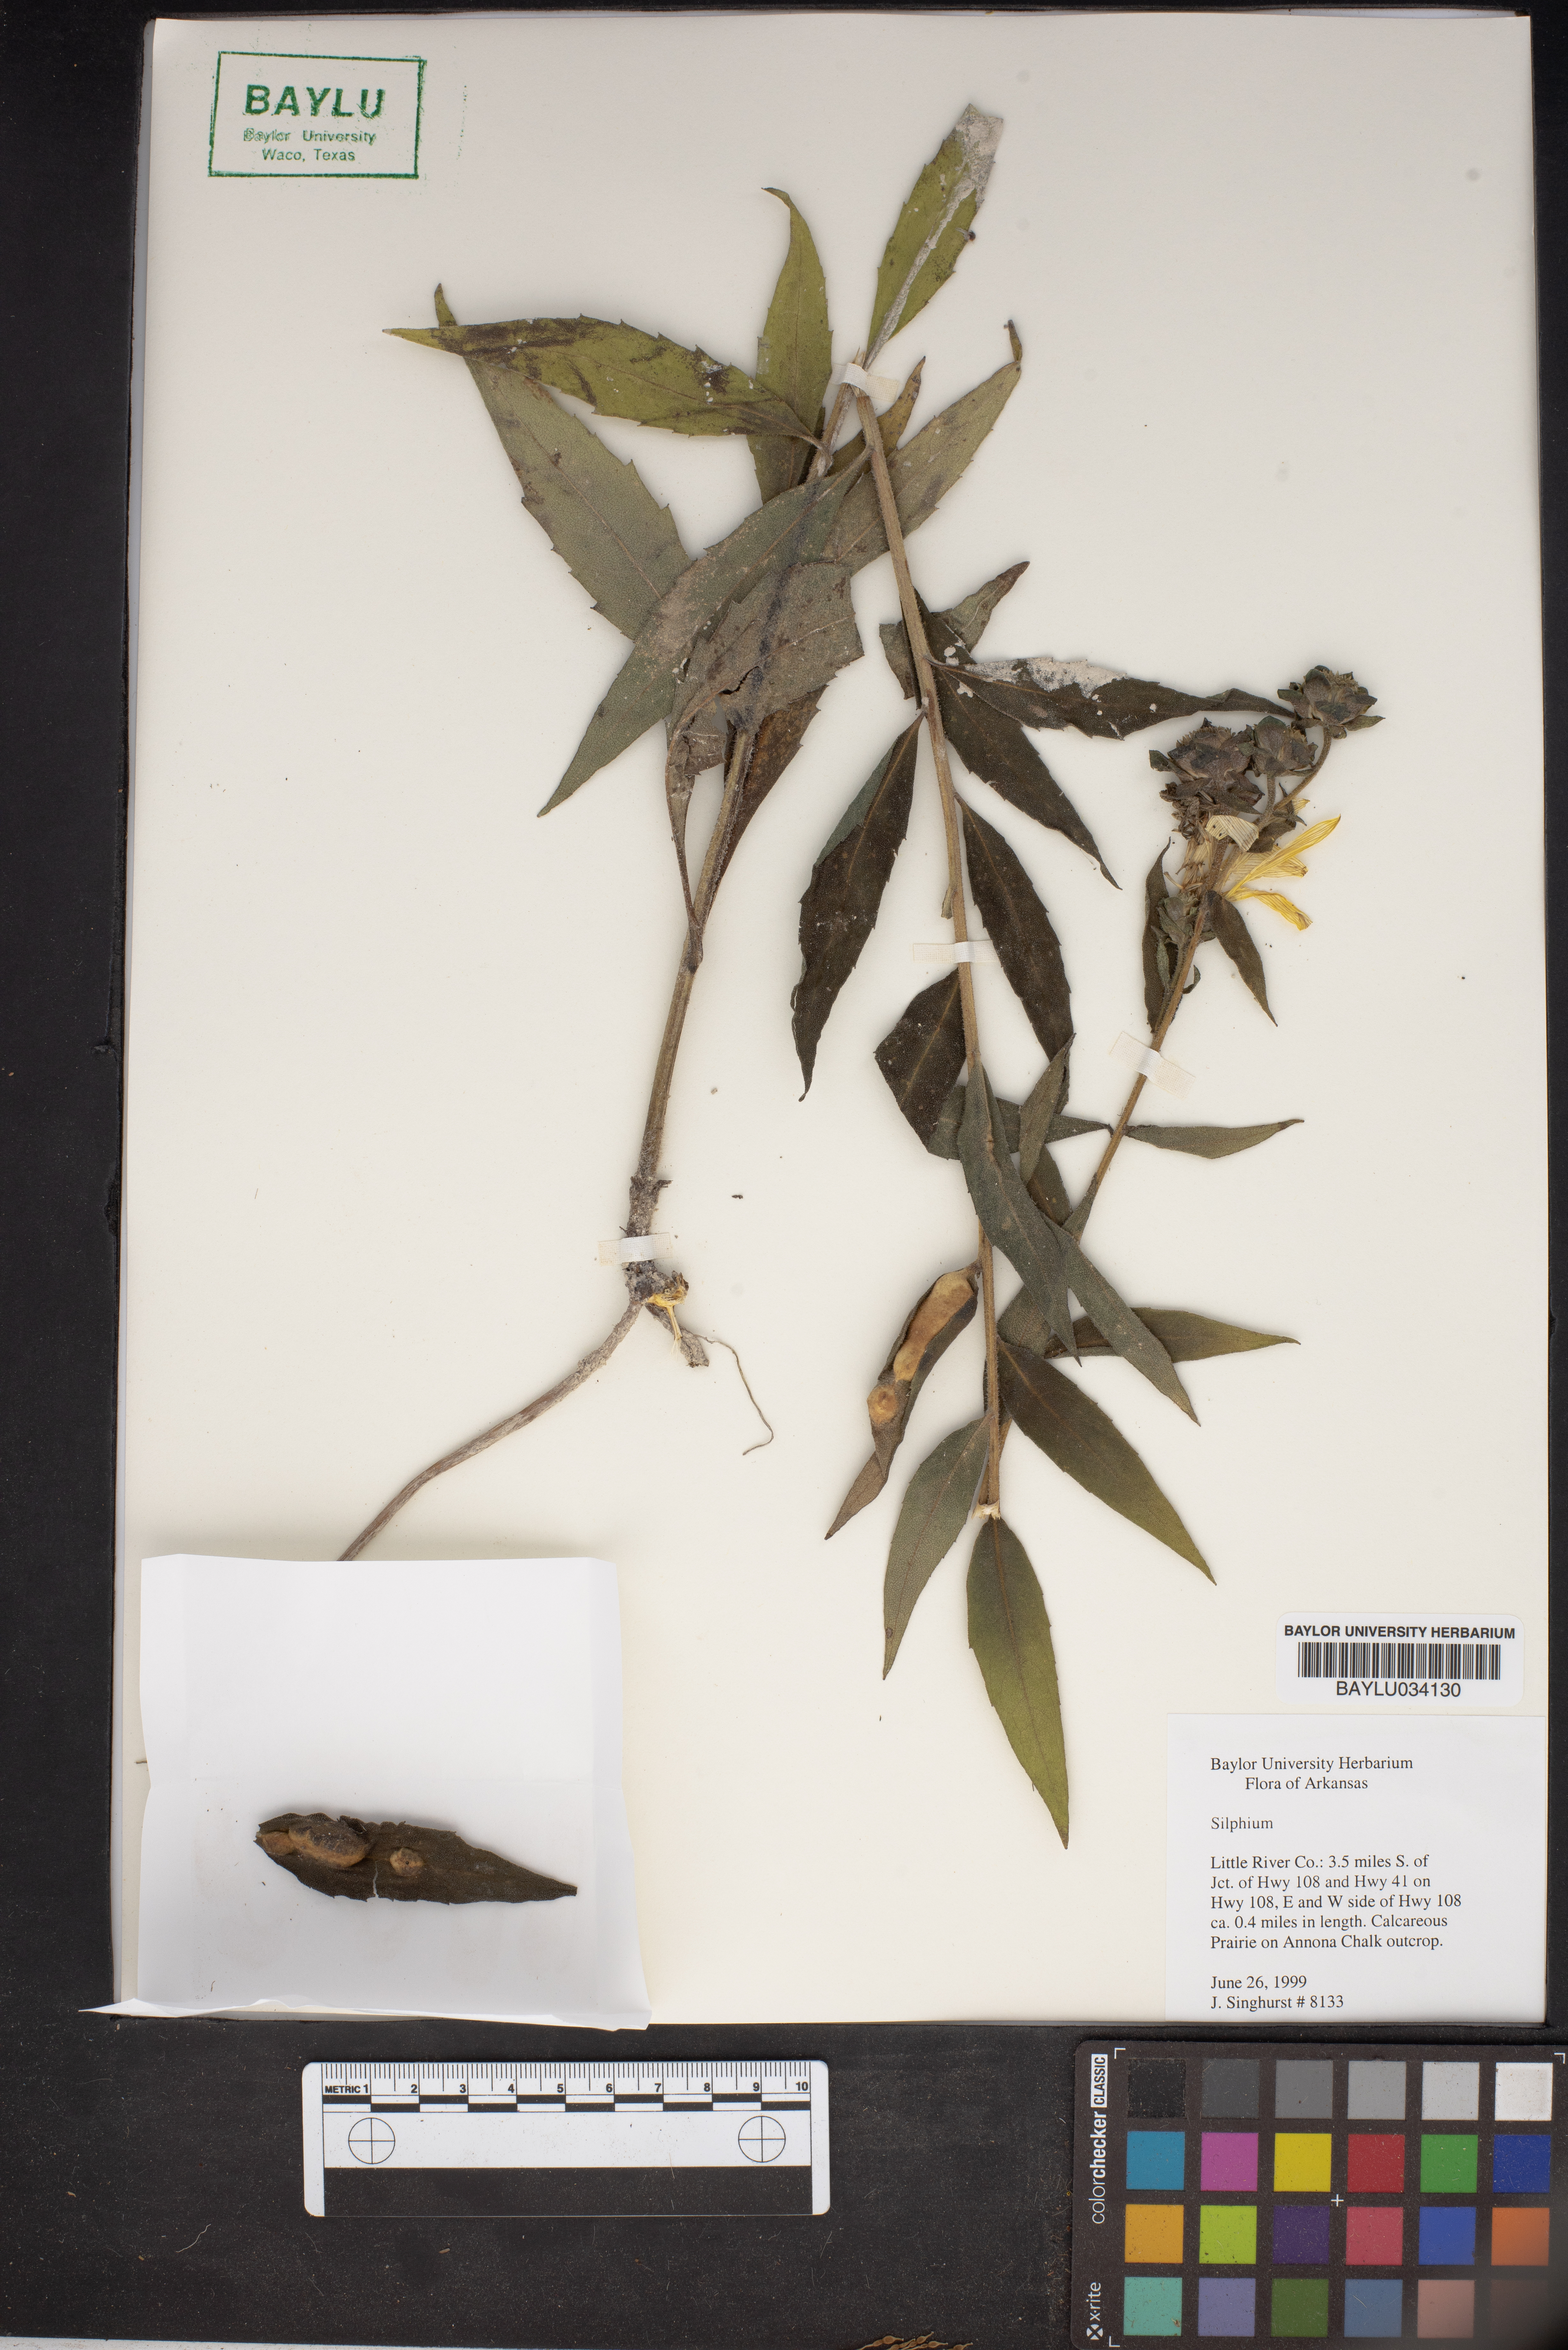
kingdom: Plantae
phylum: Tracheophyta
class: Magnoliopsida
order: Asterales
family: Asteraceae
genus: Silphium
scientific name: Silphium
